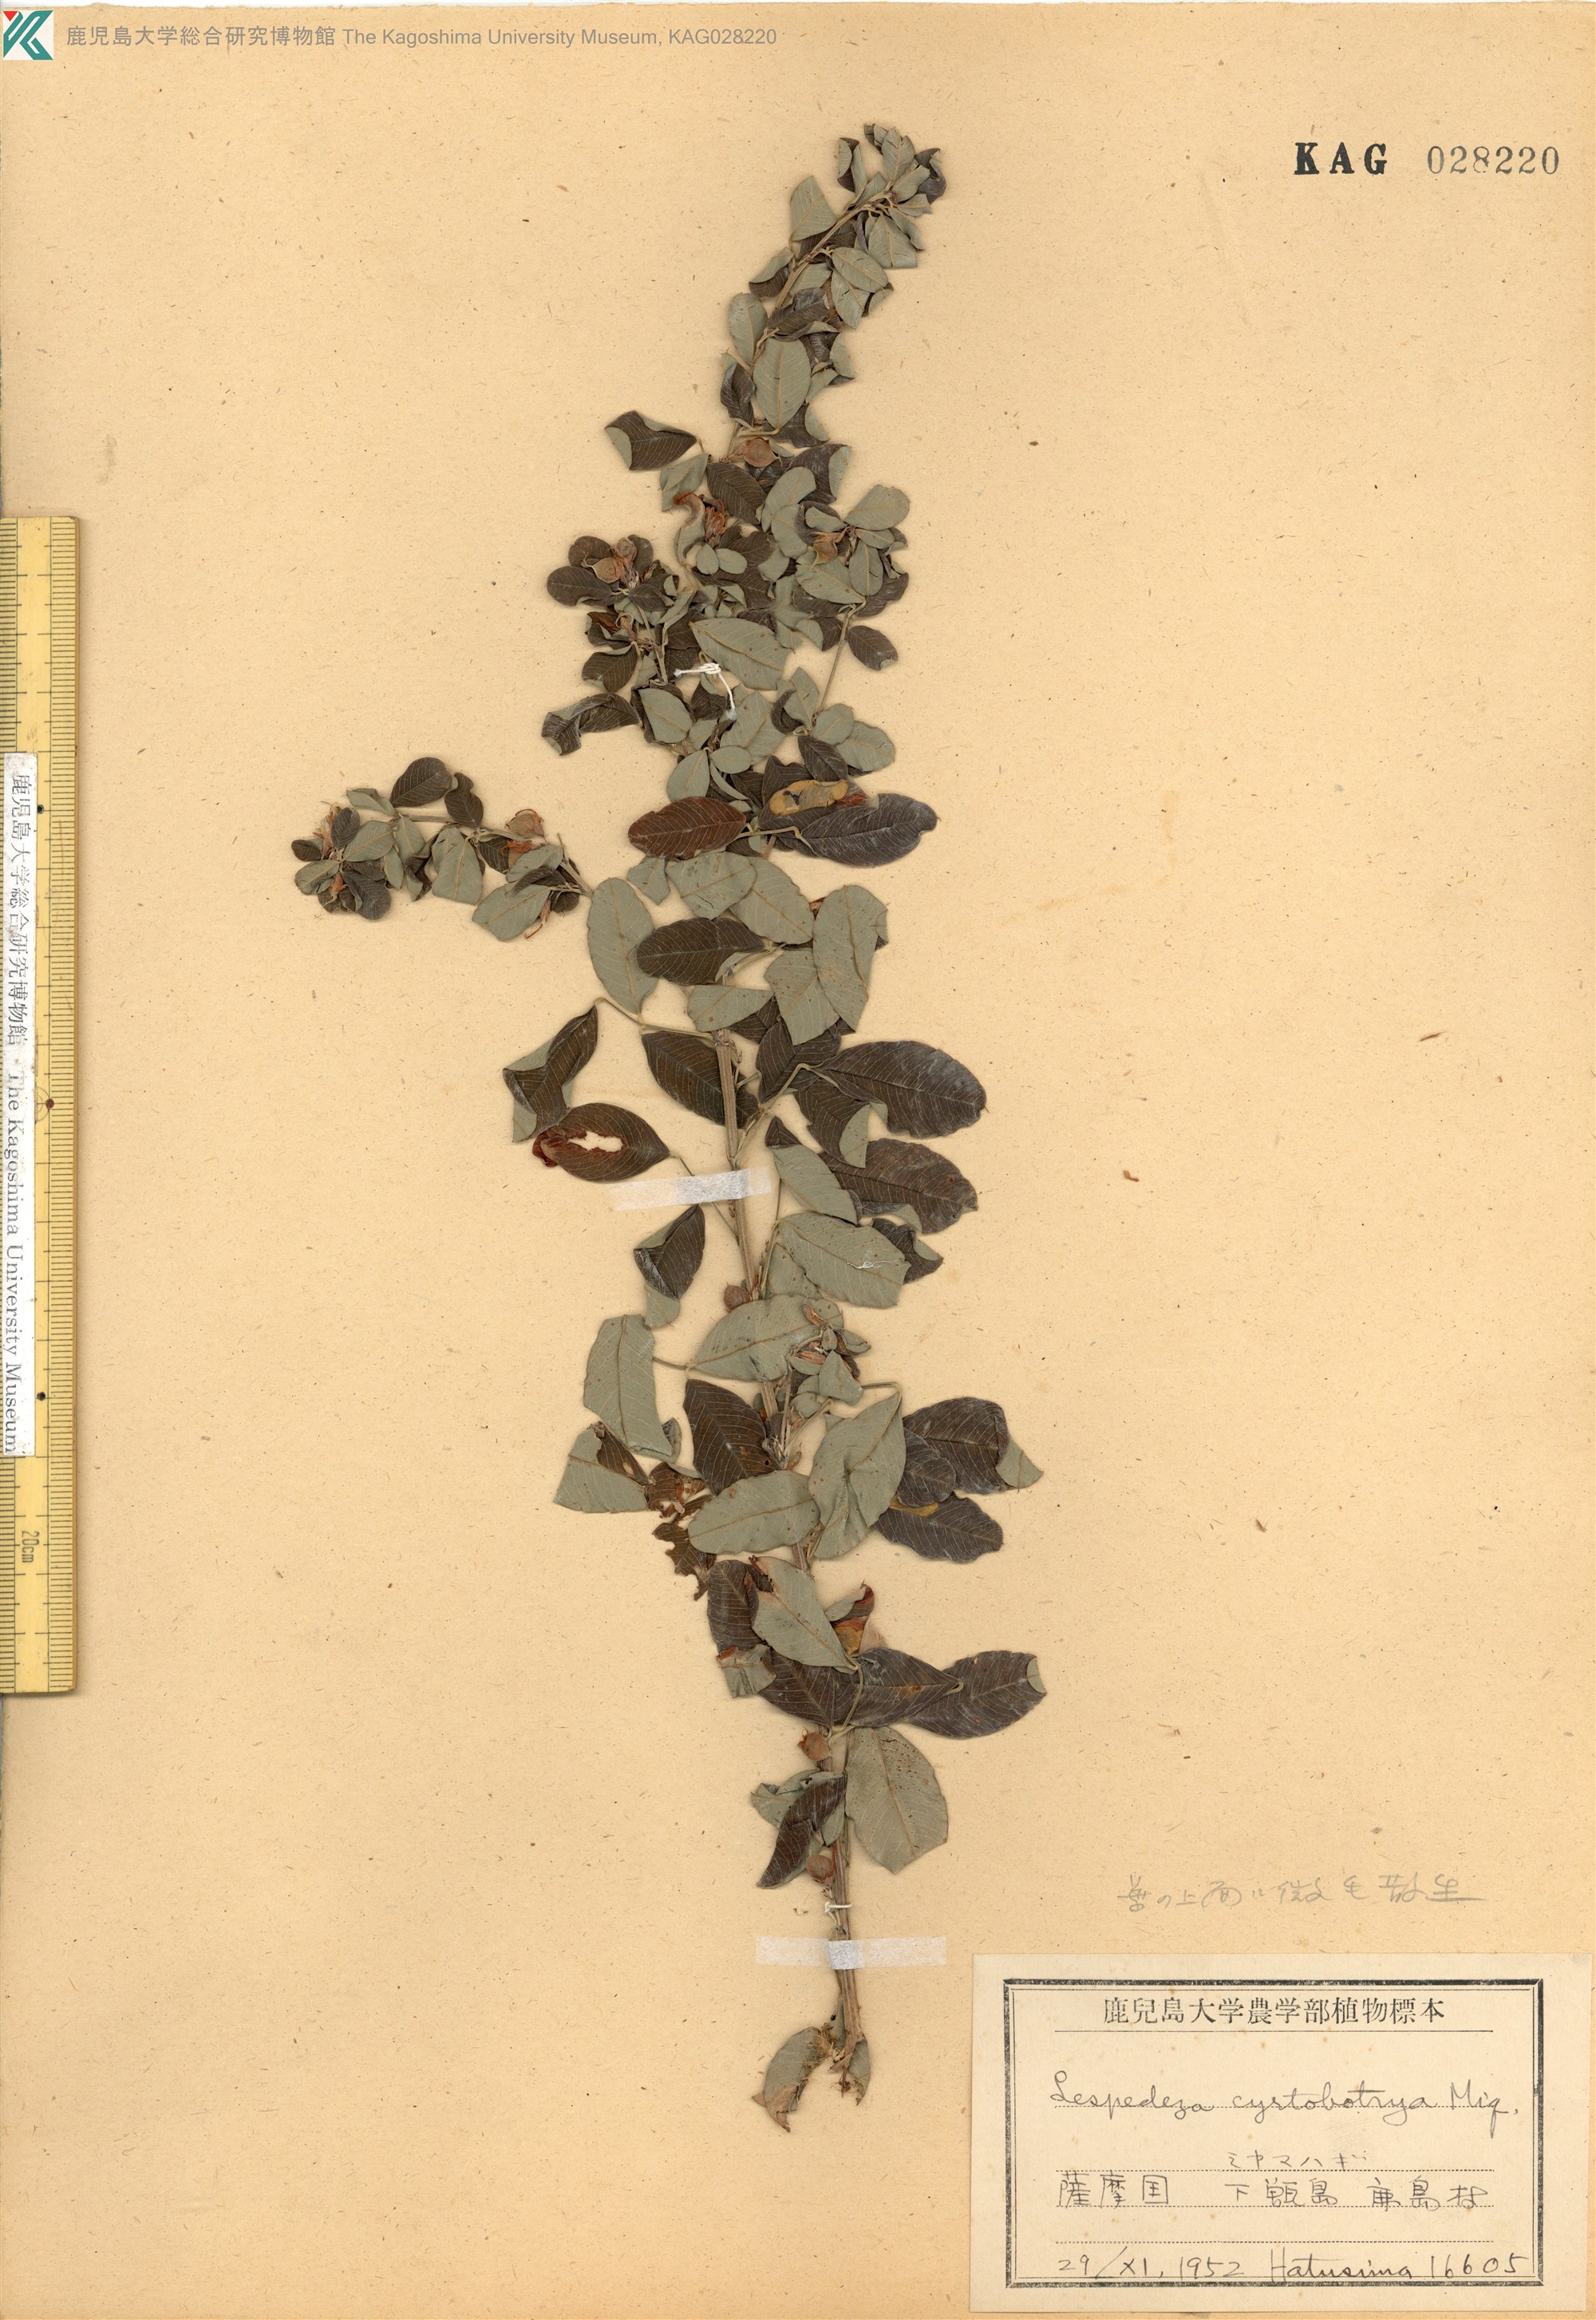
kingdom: Plantae
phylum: Tracheophyta
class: Magnoliopsida
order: Fabales
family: Fabaceae
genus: Lespedeza
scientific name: Lespedeza cyrtobotrya
